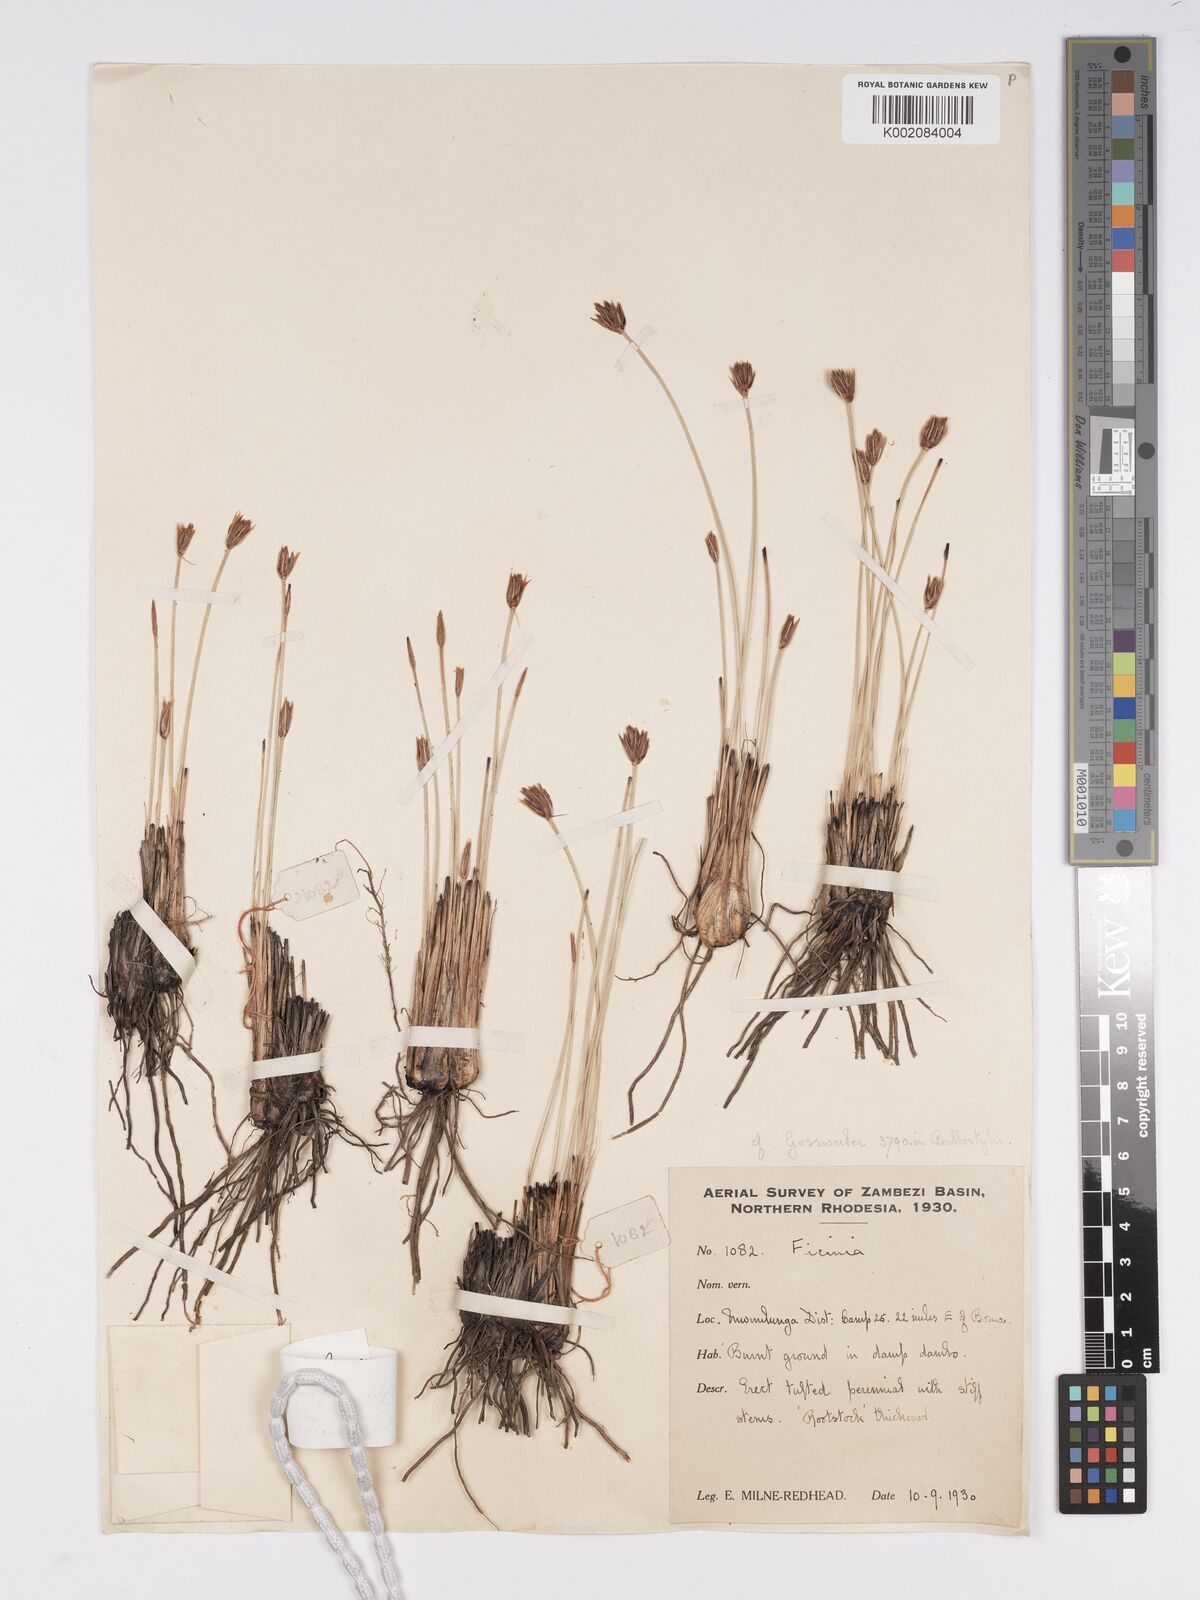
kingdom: Plantae
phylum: Tracheophyta
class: Liliopsida
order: Poales
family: Cyperaceae
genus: Bulbostylis
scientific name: Bulbostylis igneotonsa
